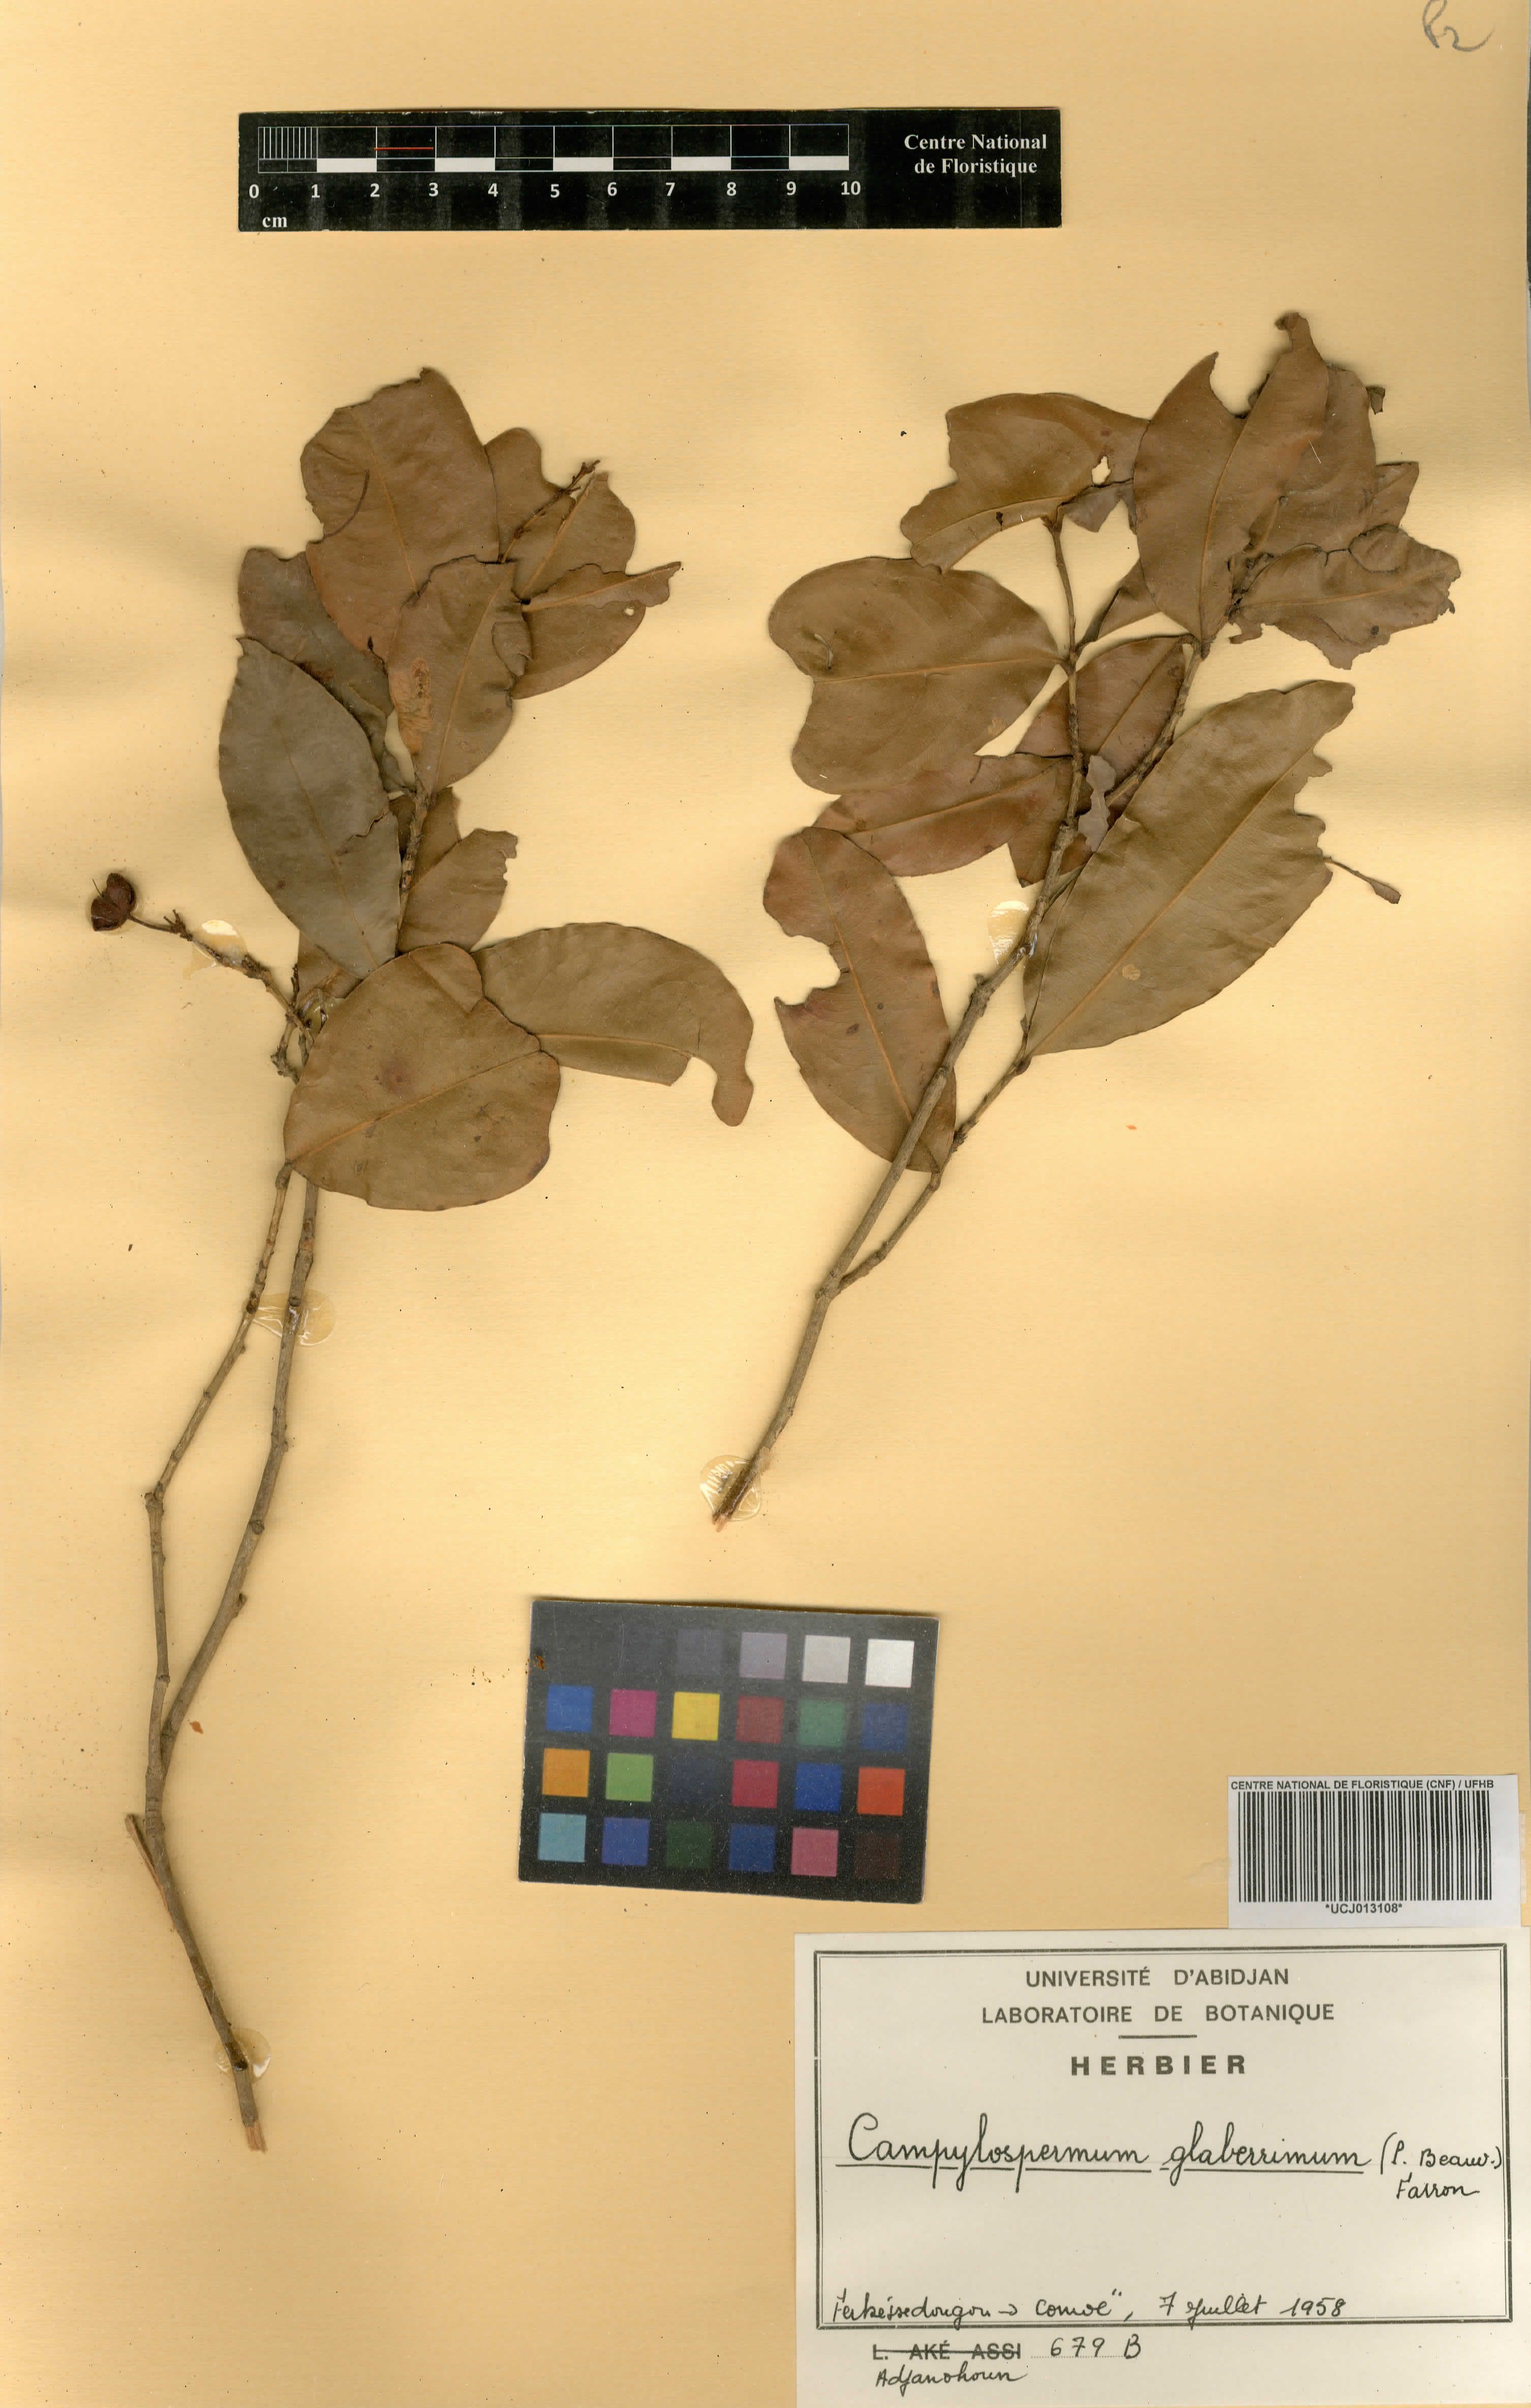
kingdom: Plantae
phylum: Tracheophyta
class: Magnoliopsida
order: Malpighiales
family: Ochnaceae
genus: Campylospermum
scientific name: Campylospermum glaberrimum
